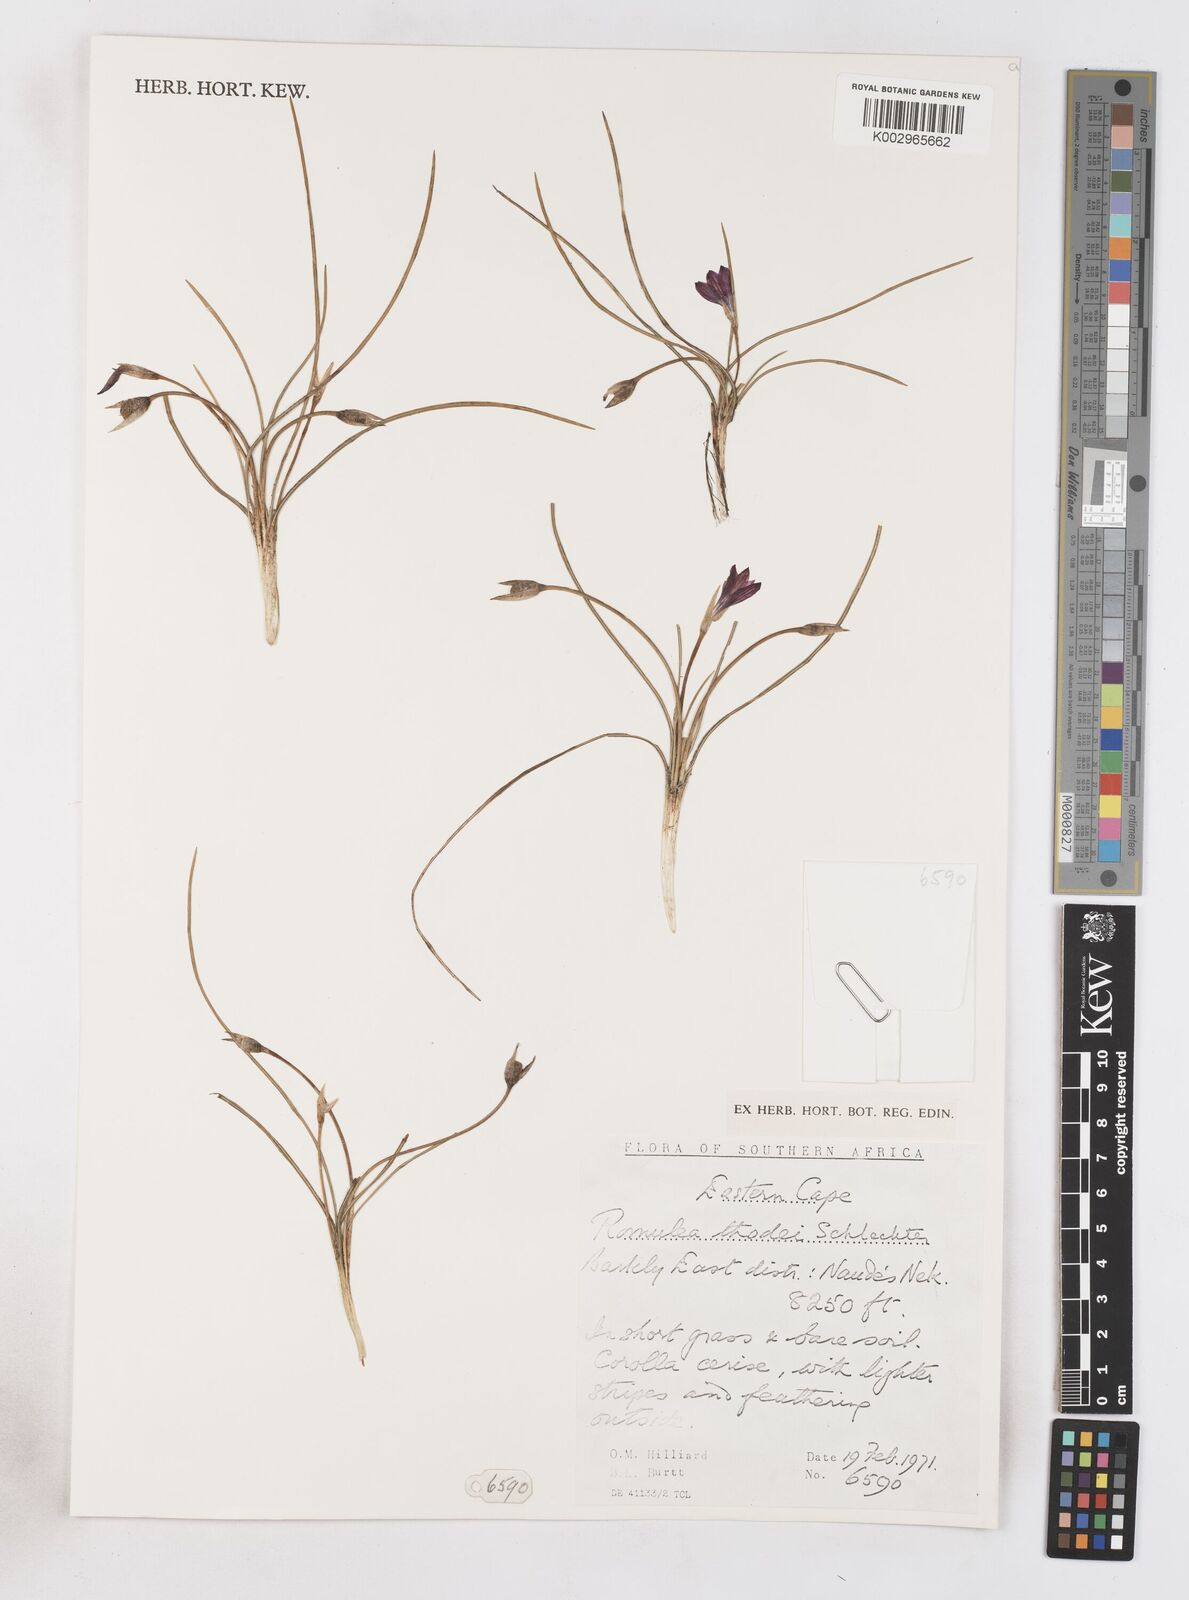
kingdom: Plantae
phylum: Tracheophyta
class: Liliopsida
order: Asparagales
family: Iridaceae
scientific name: Iridaceae
